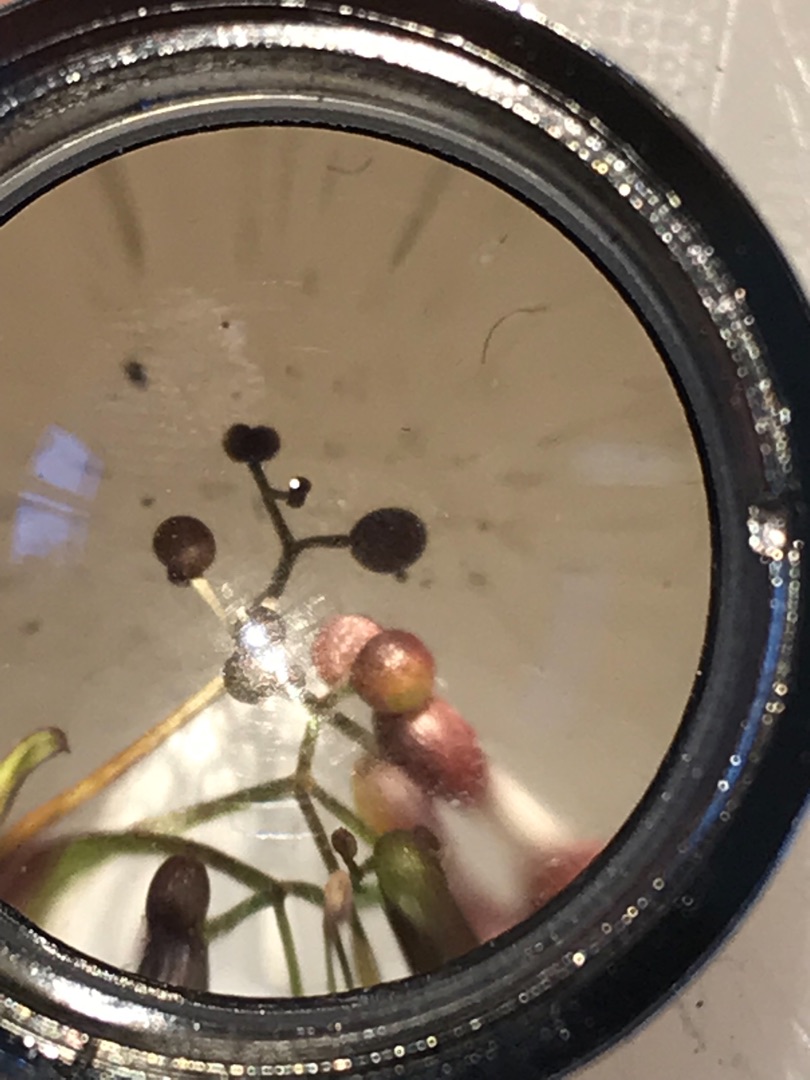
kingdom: Plantae
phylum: Tracheophyta
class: Magnoliopsida
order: Gentianales
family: Rubiaceae
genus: Galium
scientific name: Galium palustre
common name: Kær-snerre
